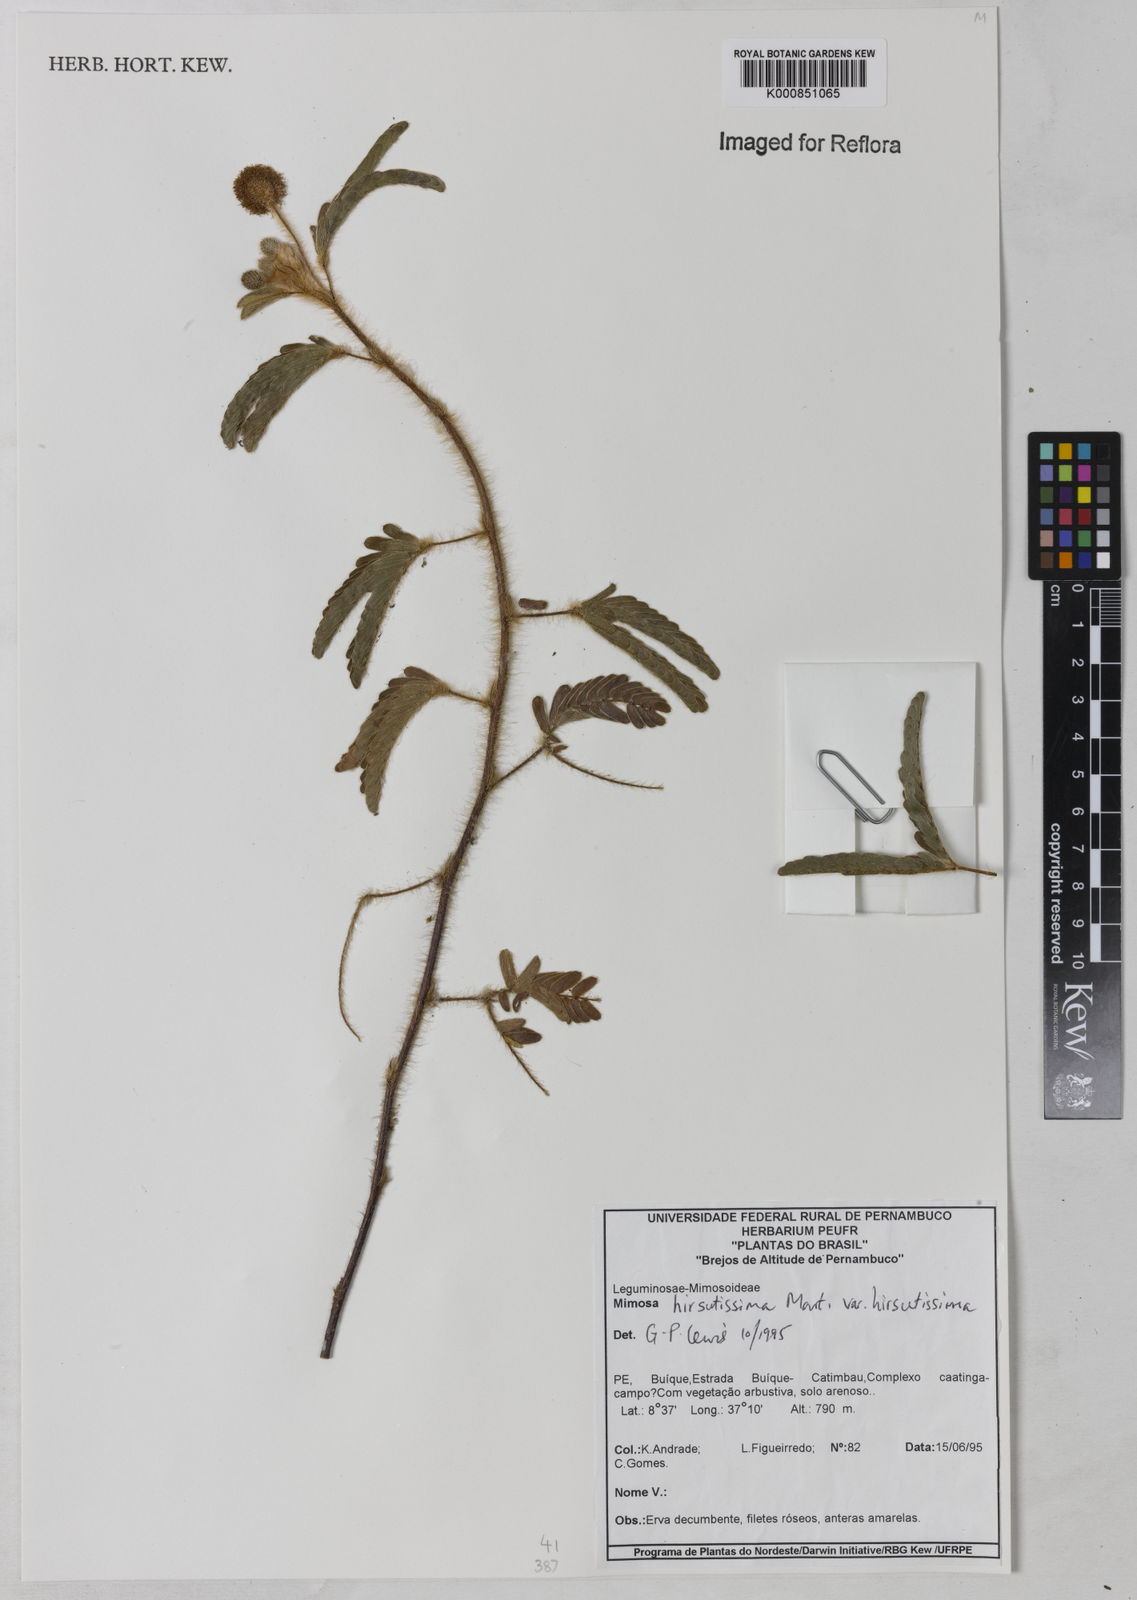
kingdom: Plantae
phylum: Tracheophyta
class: Magnoliopsida
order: Fabales
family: Fabaceae
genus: Mimosa
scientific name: Mimosa hirsutissima
